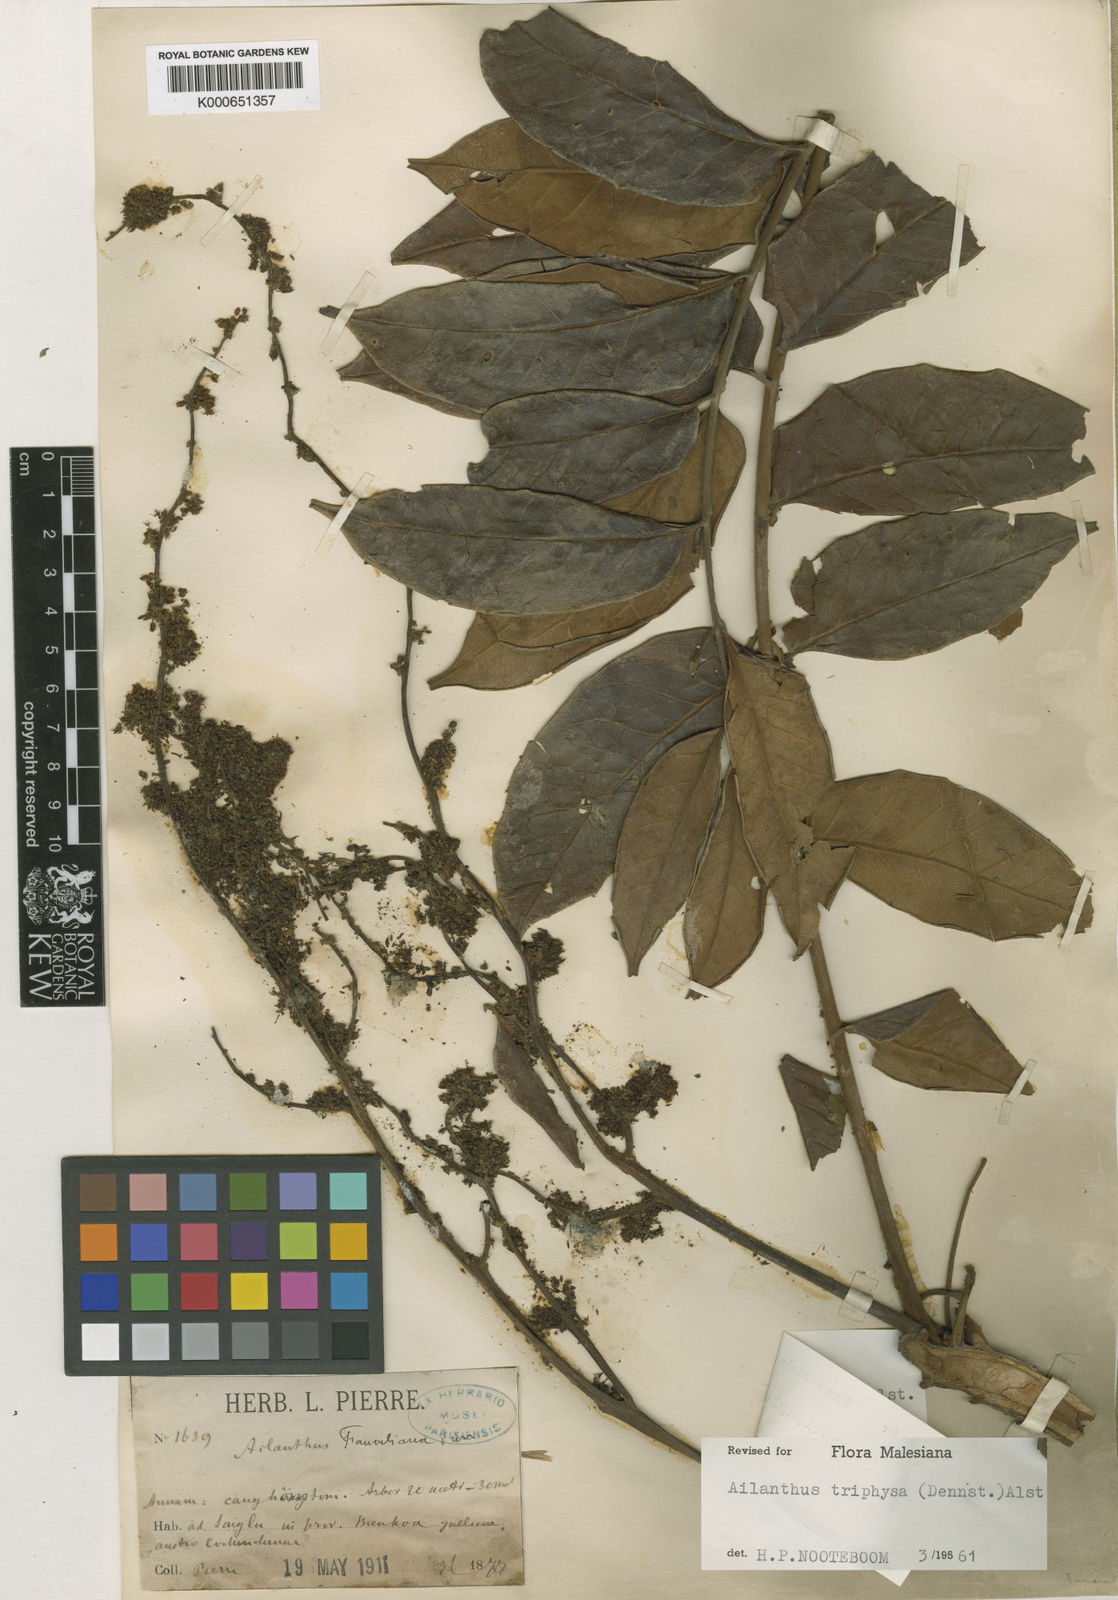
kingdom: Plantae
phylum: Tracheophyta
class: Magnoliopsida
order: Sapindales
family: Simaroubaceae
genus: Ailanthus
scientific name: Ailanthus triphysa
